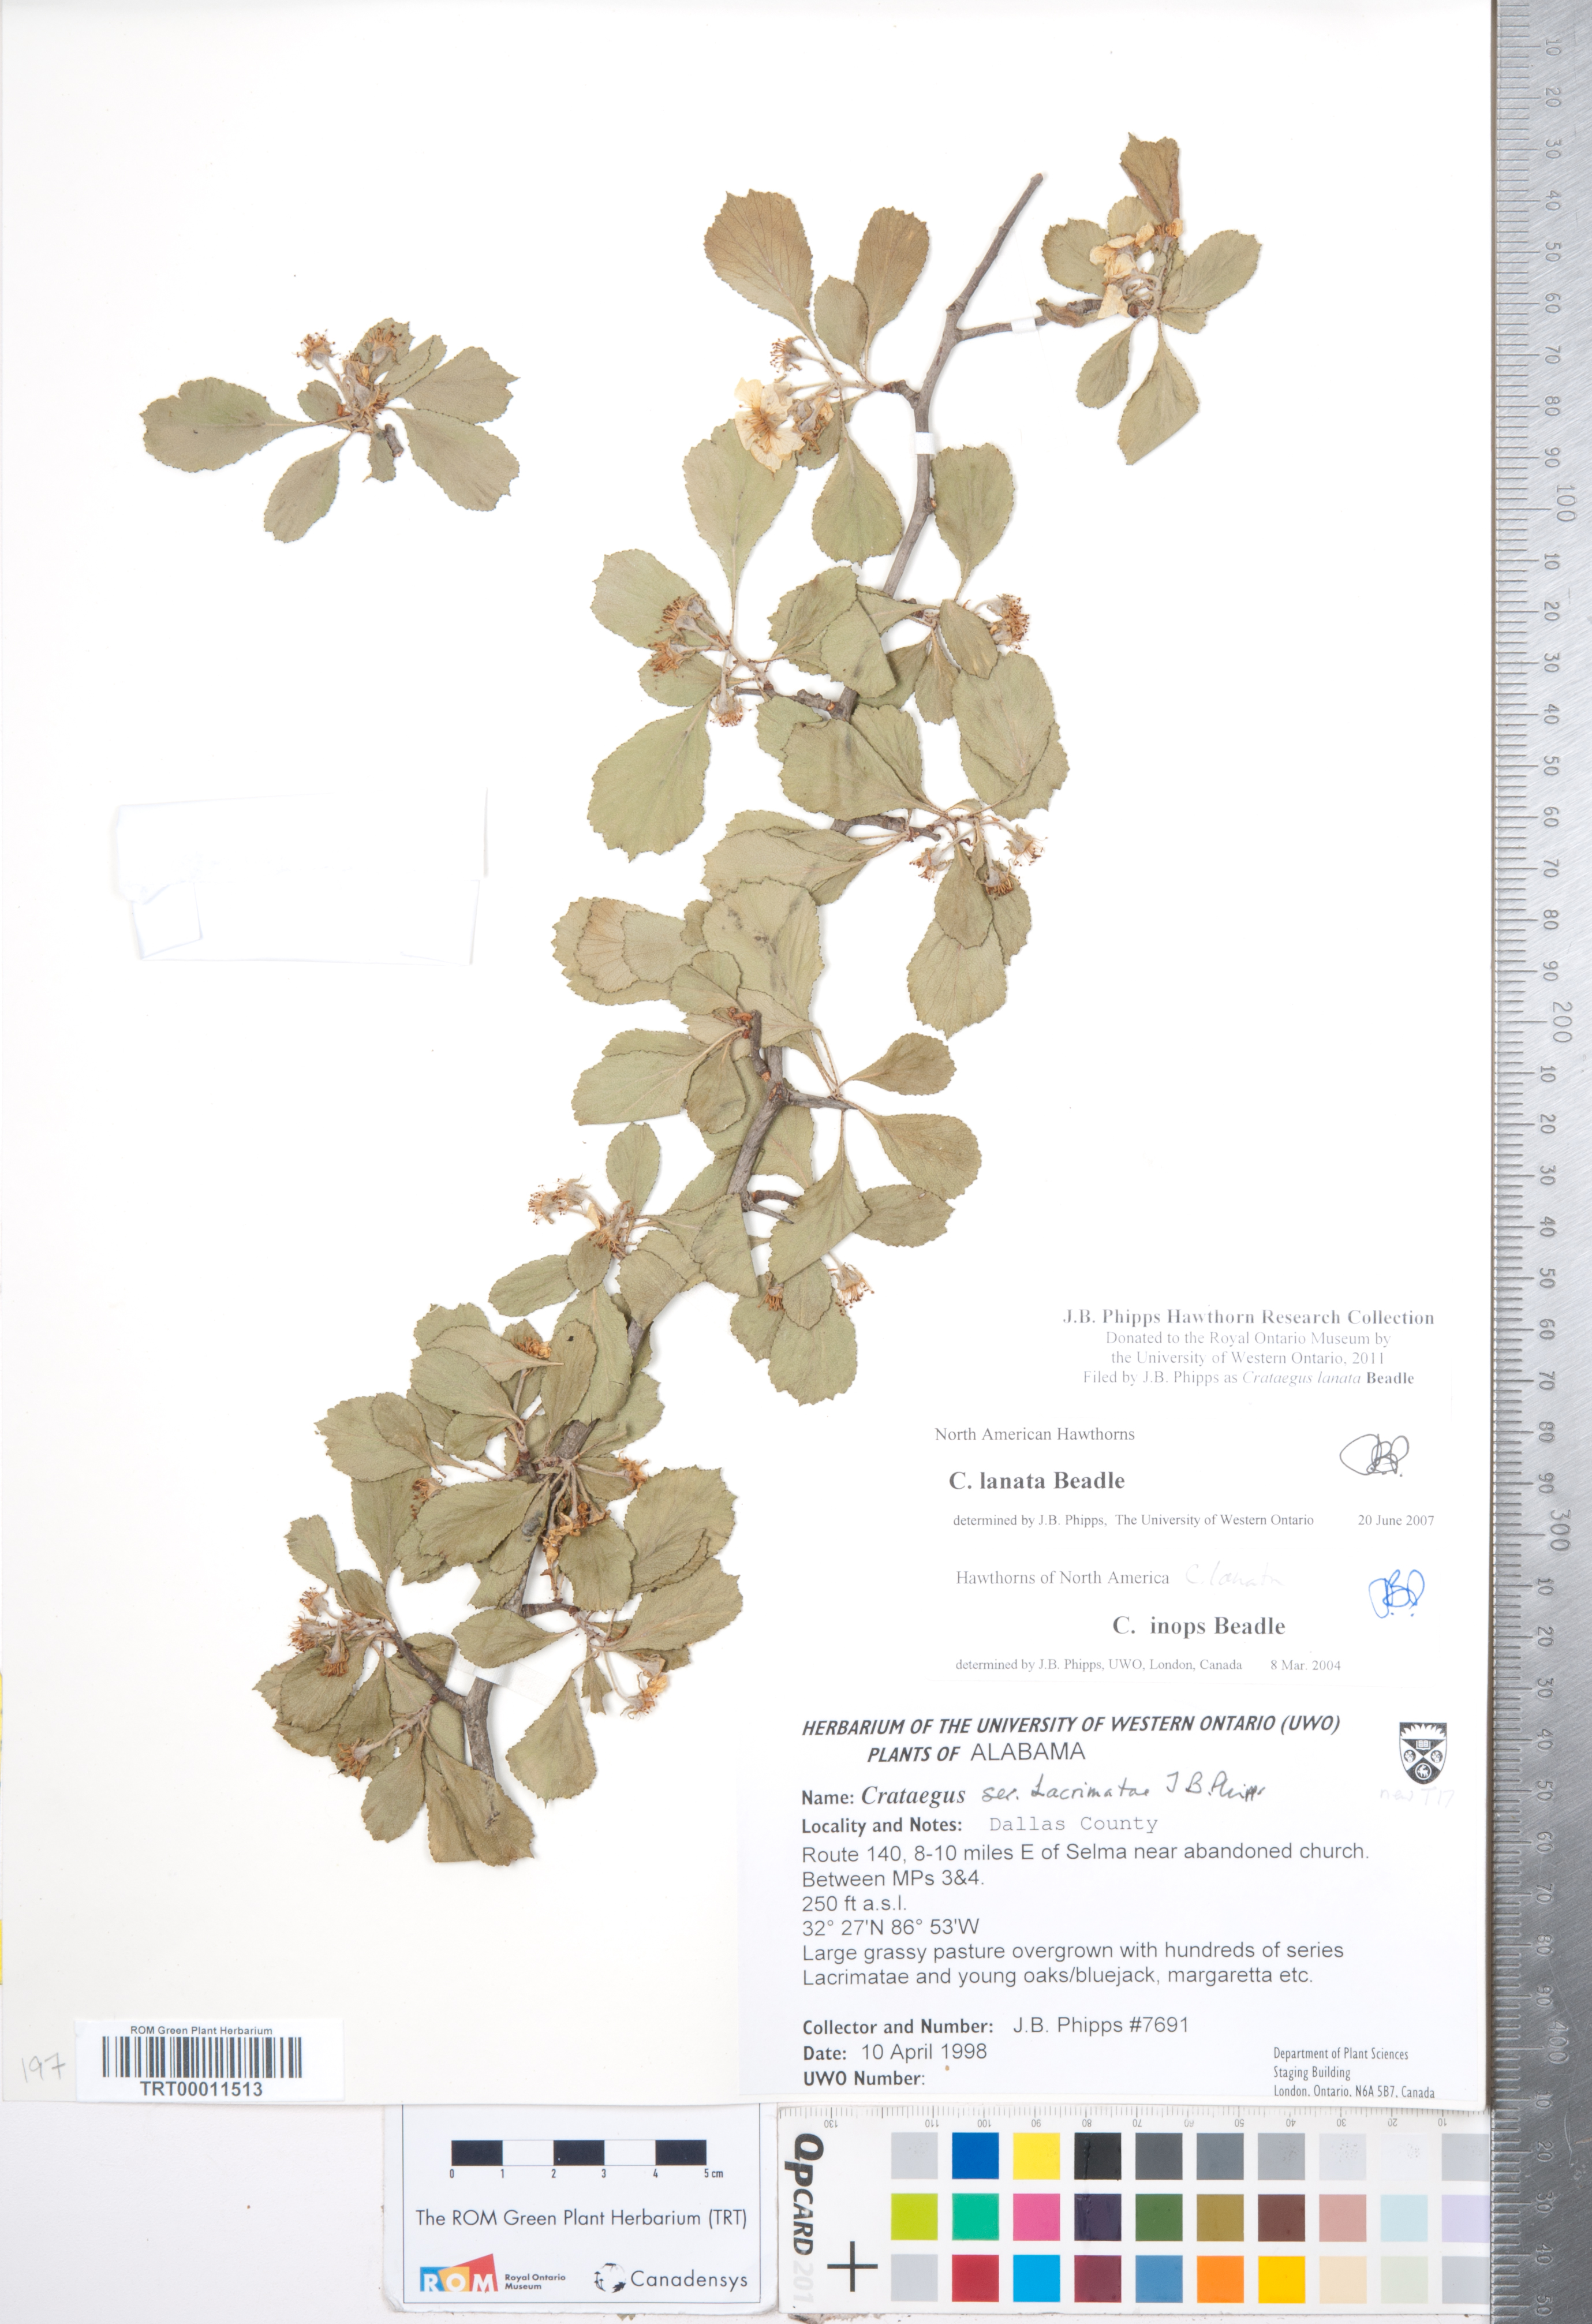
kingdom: Plantae
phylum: Tracheophyta
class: Magnoliopsida
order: Rosales
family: Rosaceae
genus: Crataegus
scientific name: Crataegus lassa
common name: Florida hawthorn
